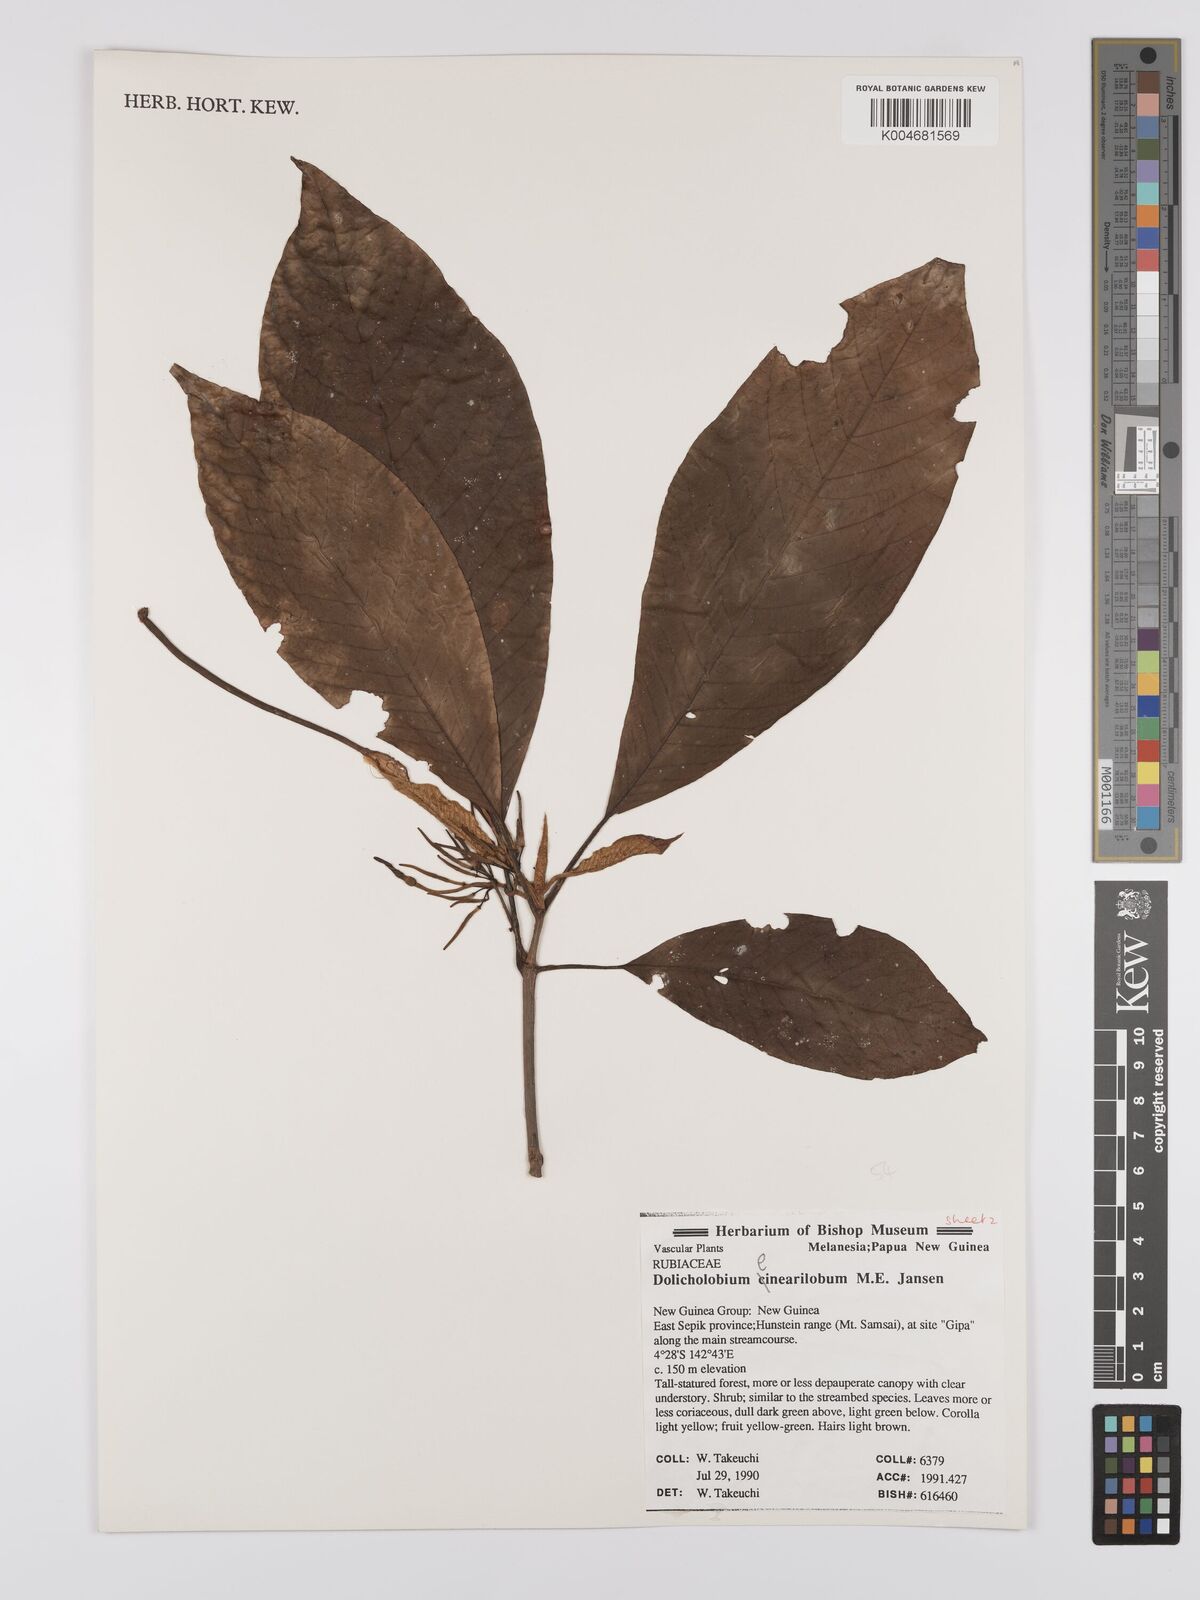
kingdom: Plantae
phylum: Tracheophyta
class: Magnoliopsida
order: Gentianales
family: Rubiaceae
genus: Dolicholobium
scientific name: Dolicholobium linearilobum
